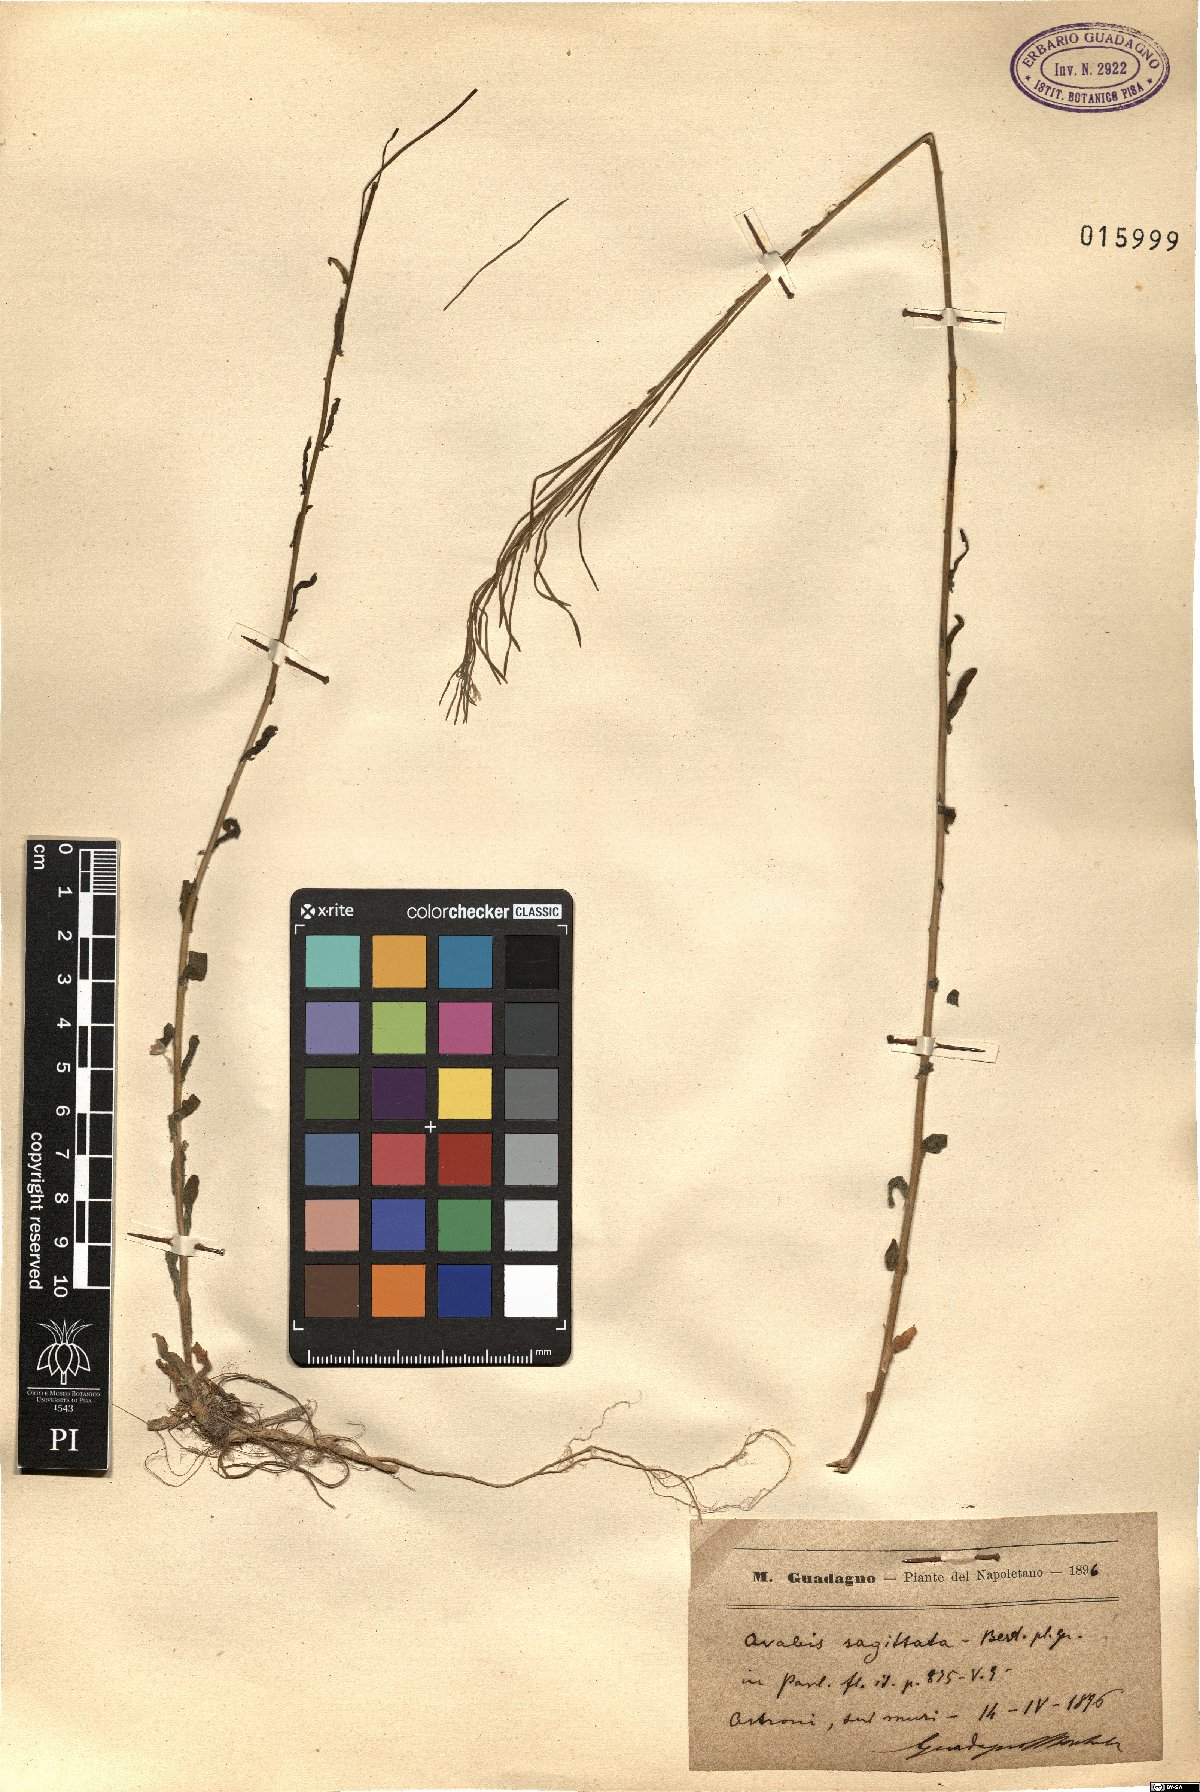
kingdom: Plantae
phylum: Tracheophyta
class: Magnoliopsida
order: Brassicales
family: Brassicaceae
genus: Arabis
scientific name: Arabis sagittata
